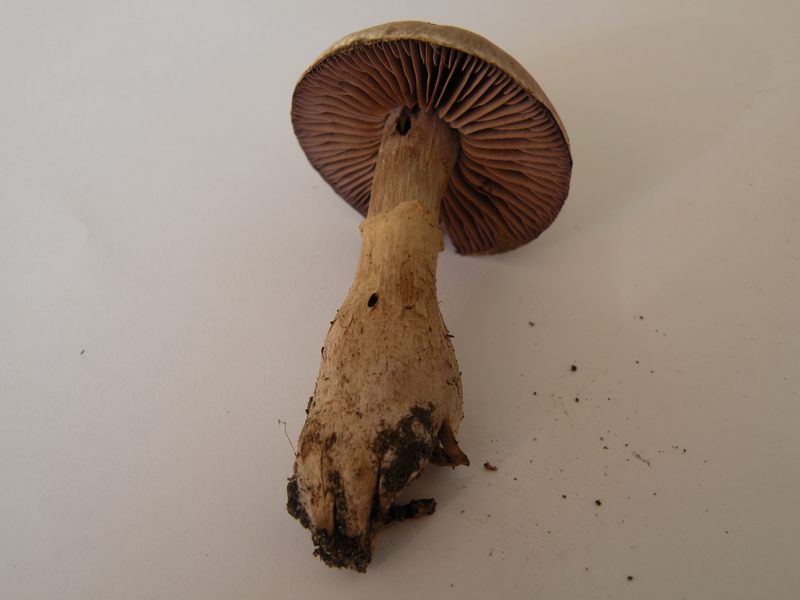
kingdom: Fungi
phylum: Basidiomycota
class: Agaricomycetes
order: Agaricales
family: Cortinariaceae
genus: Cortinarius
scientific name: Cortinarius torvus
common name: champignonagtig slørhat
